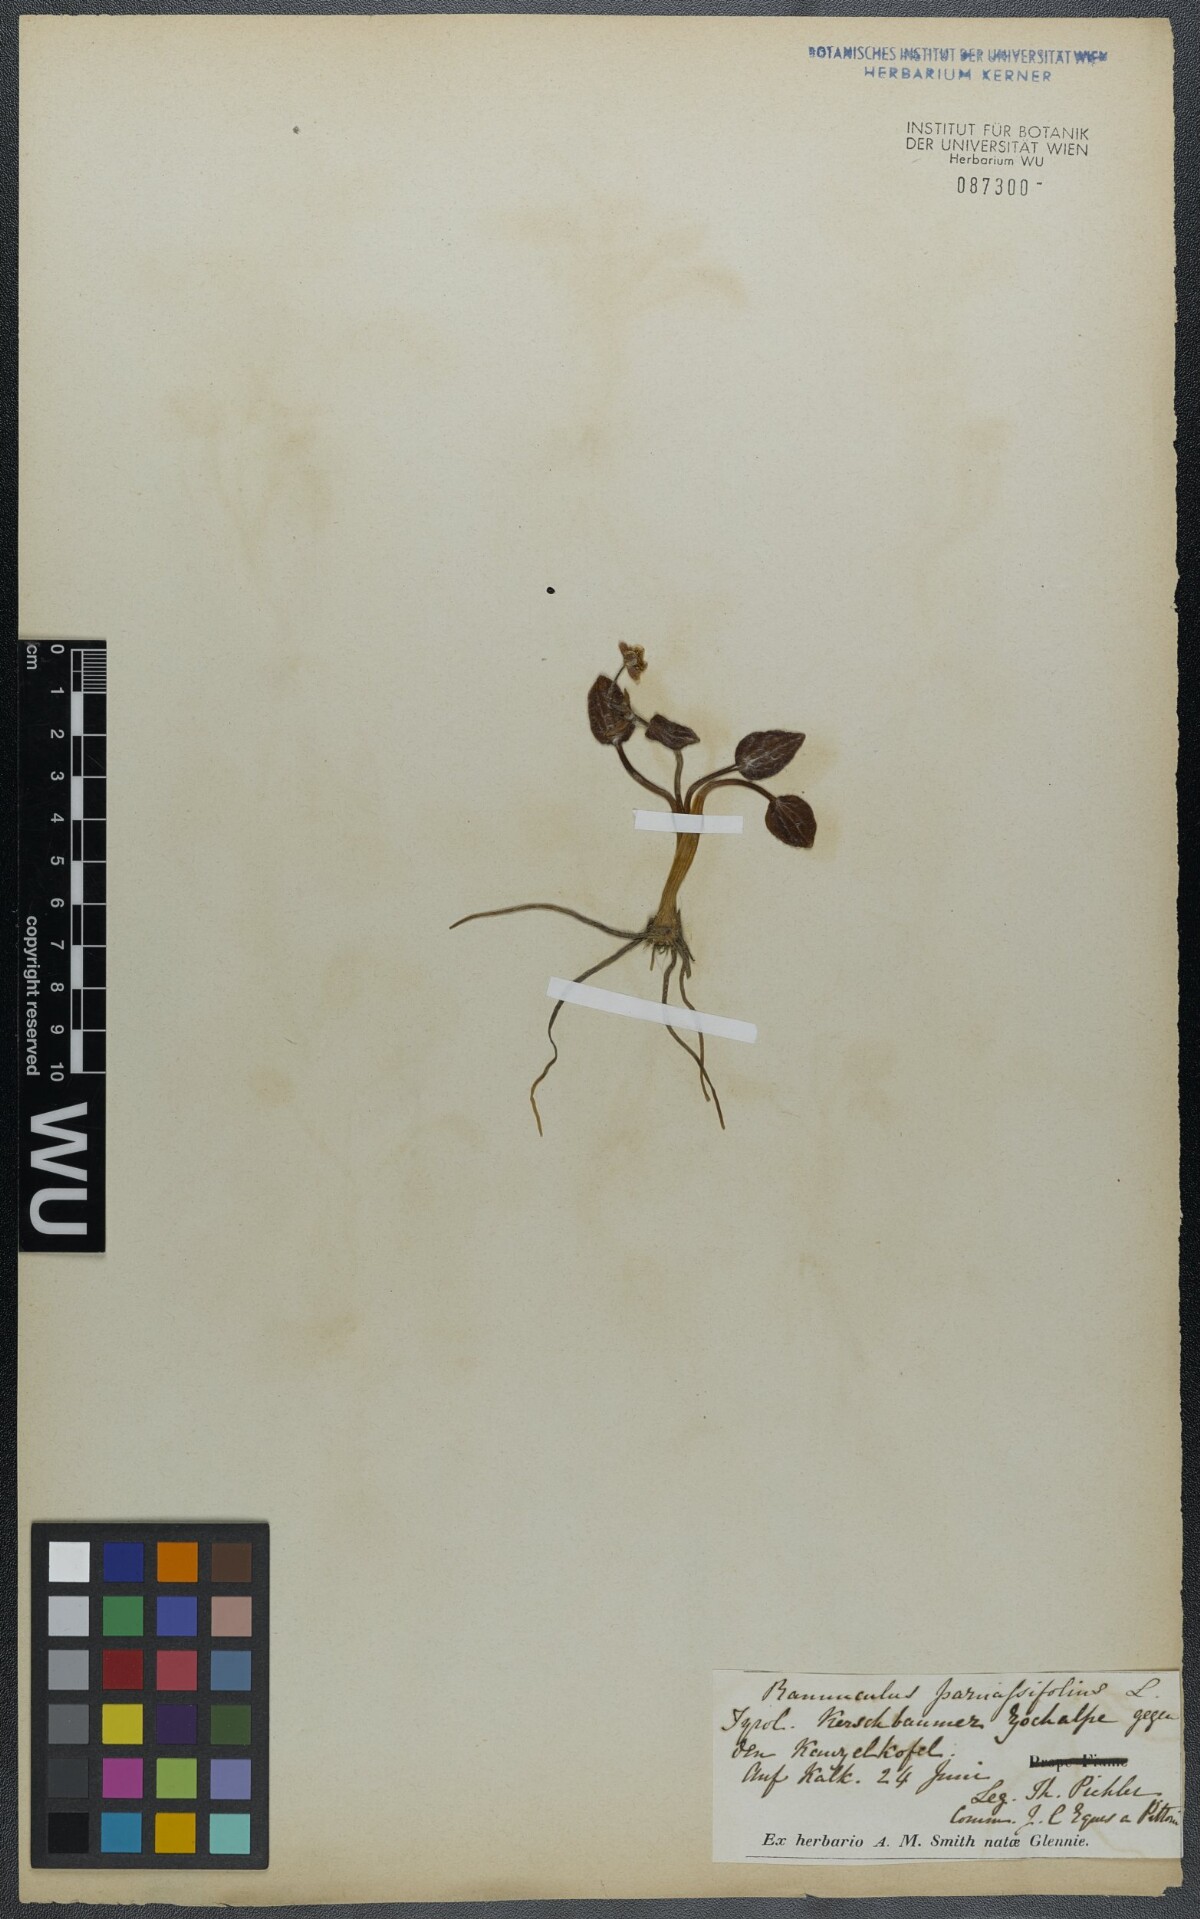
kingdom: Plantae
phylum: Tracheophyta
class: Magnoliopsida
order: Ranunculales
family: Ranunculaceae
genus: Ranunculus
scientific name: Ranunculus parnassiifolius
